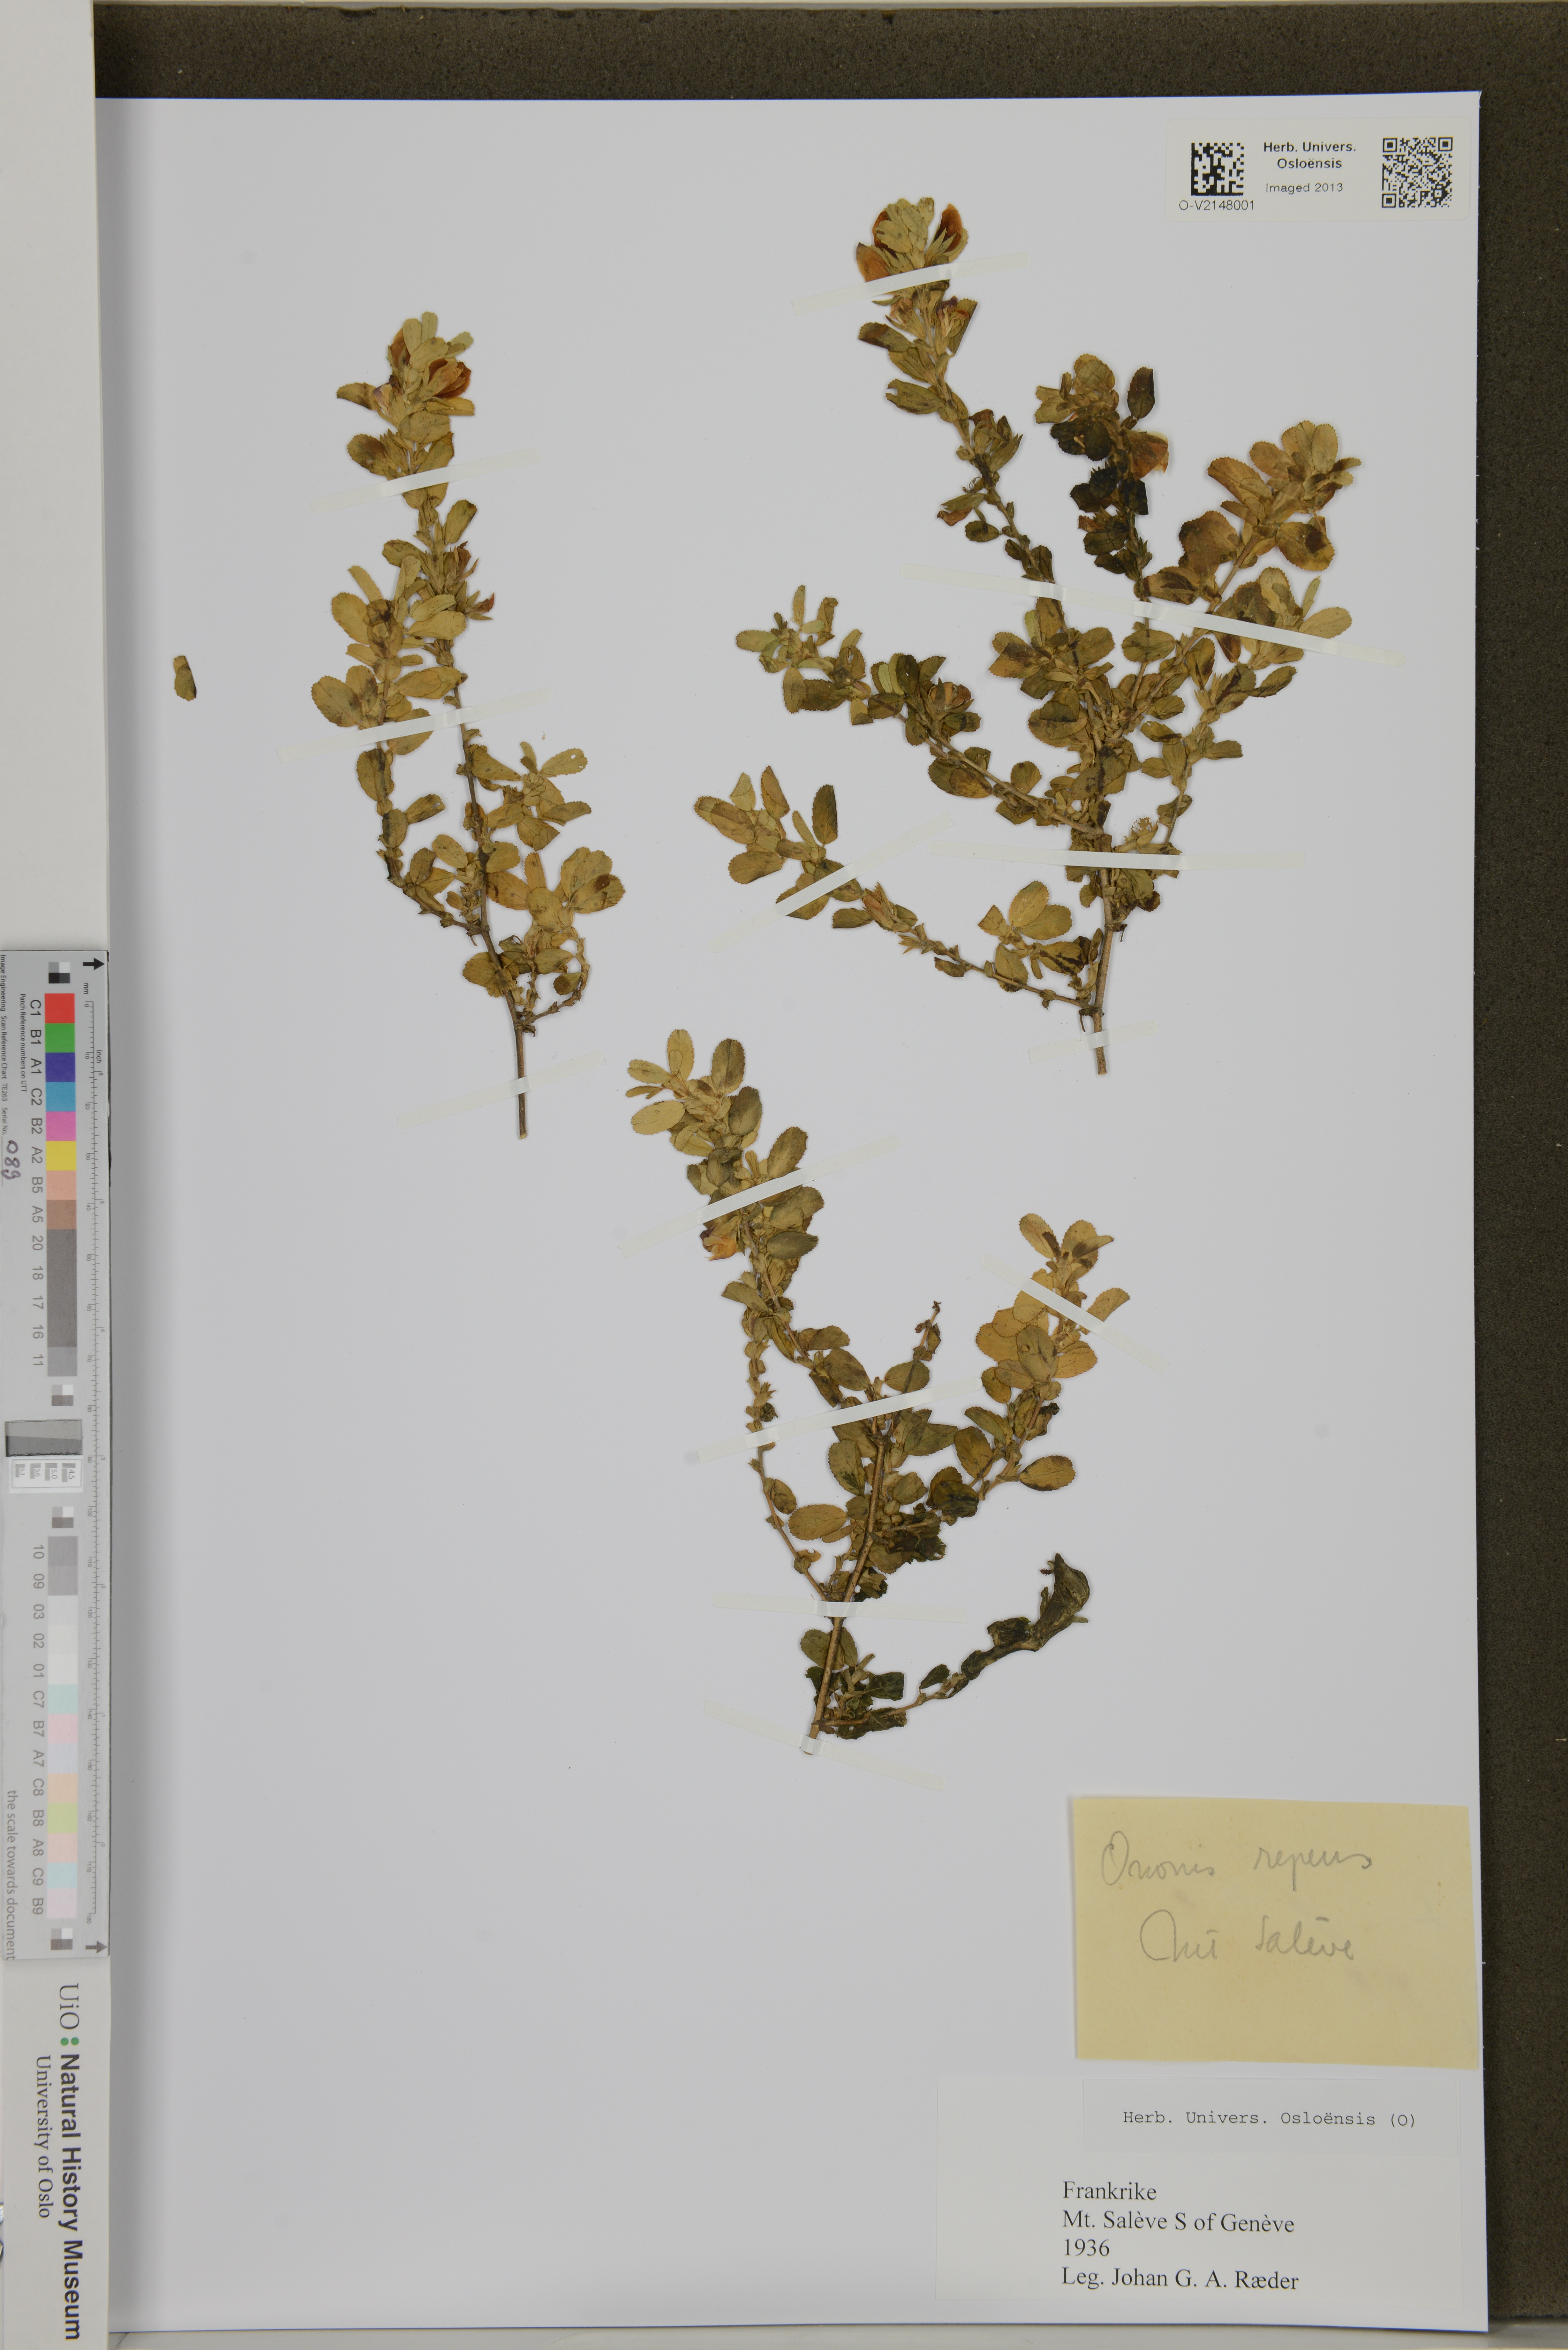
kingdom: Plantae
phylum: Tracheophyta
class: Magnoliopsida
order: Fabales
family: Fabaceae
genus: Ononis
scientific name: Ononis spinosa
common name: Spiny restharrow
